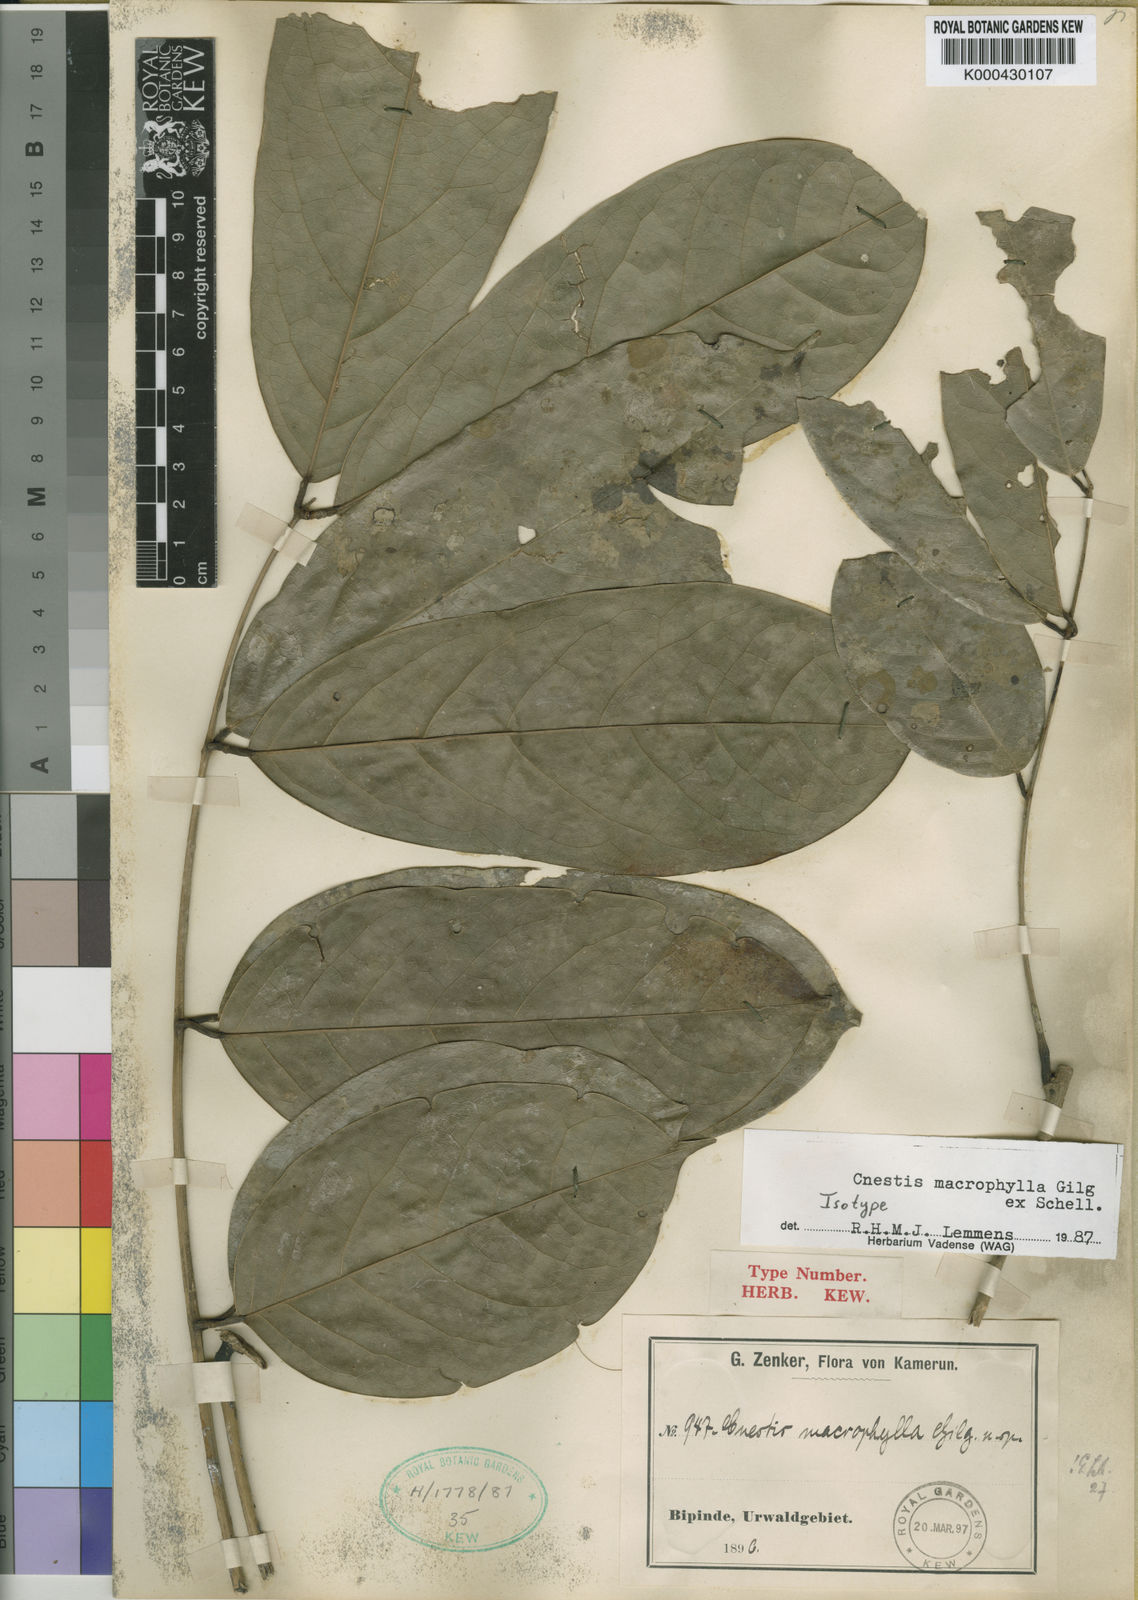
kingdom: Plantae
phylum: Tracheophyta
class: Magnoliopsida
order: Oxalidales
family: Connaraceae
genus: Cnestis
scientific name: Cnestis macrophylla
